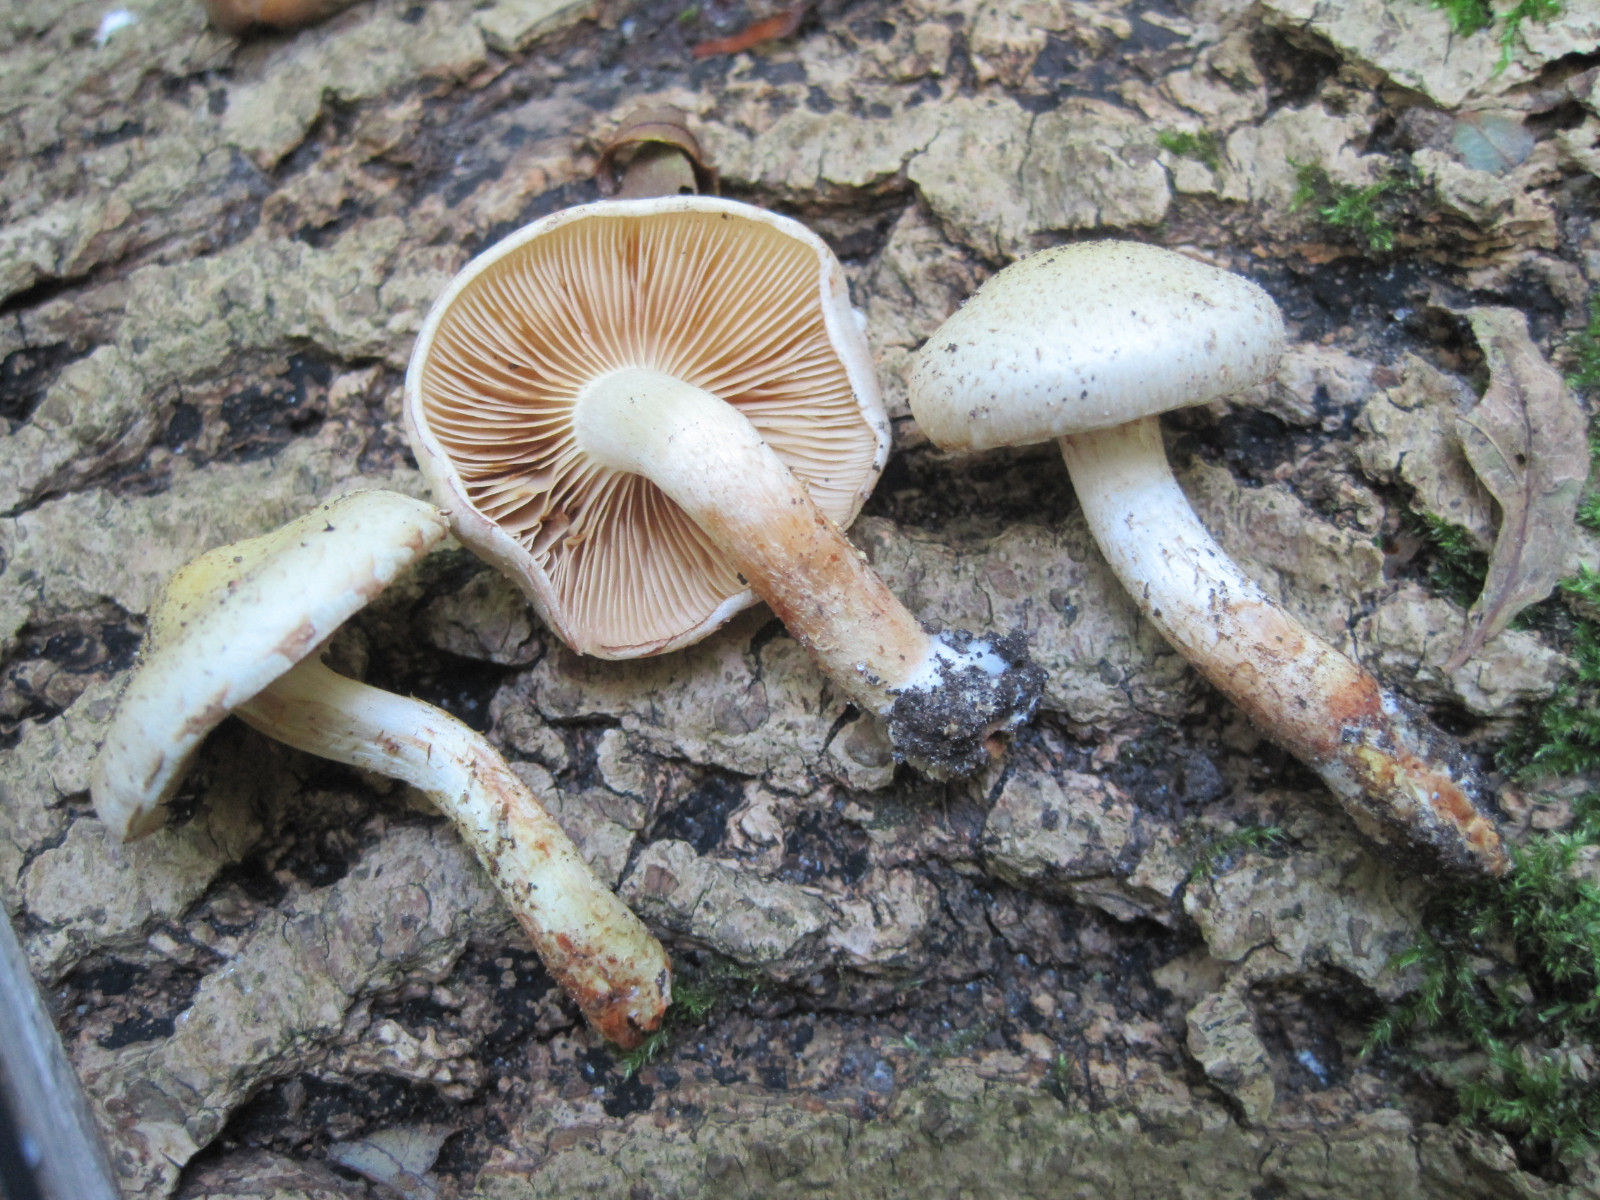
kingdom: Fungi
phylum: Basidiomycota
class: Agaricomycetes
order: Agaricales
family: Strophariaceae
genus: Pholiota
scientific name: Pholiota gummosa
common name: grøngul skælhat
